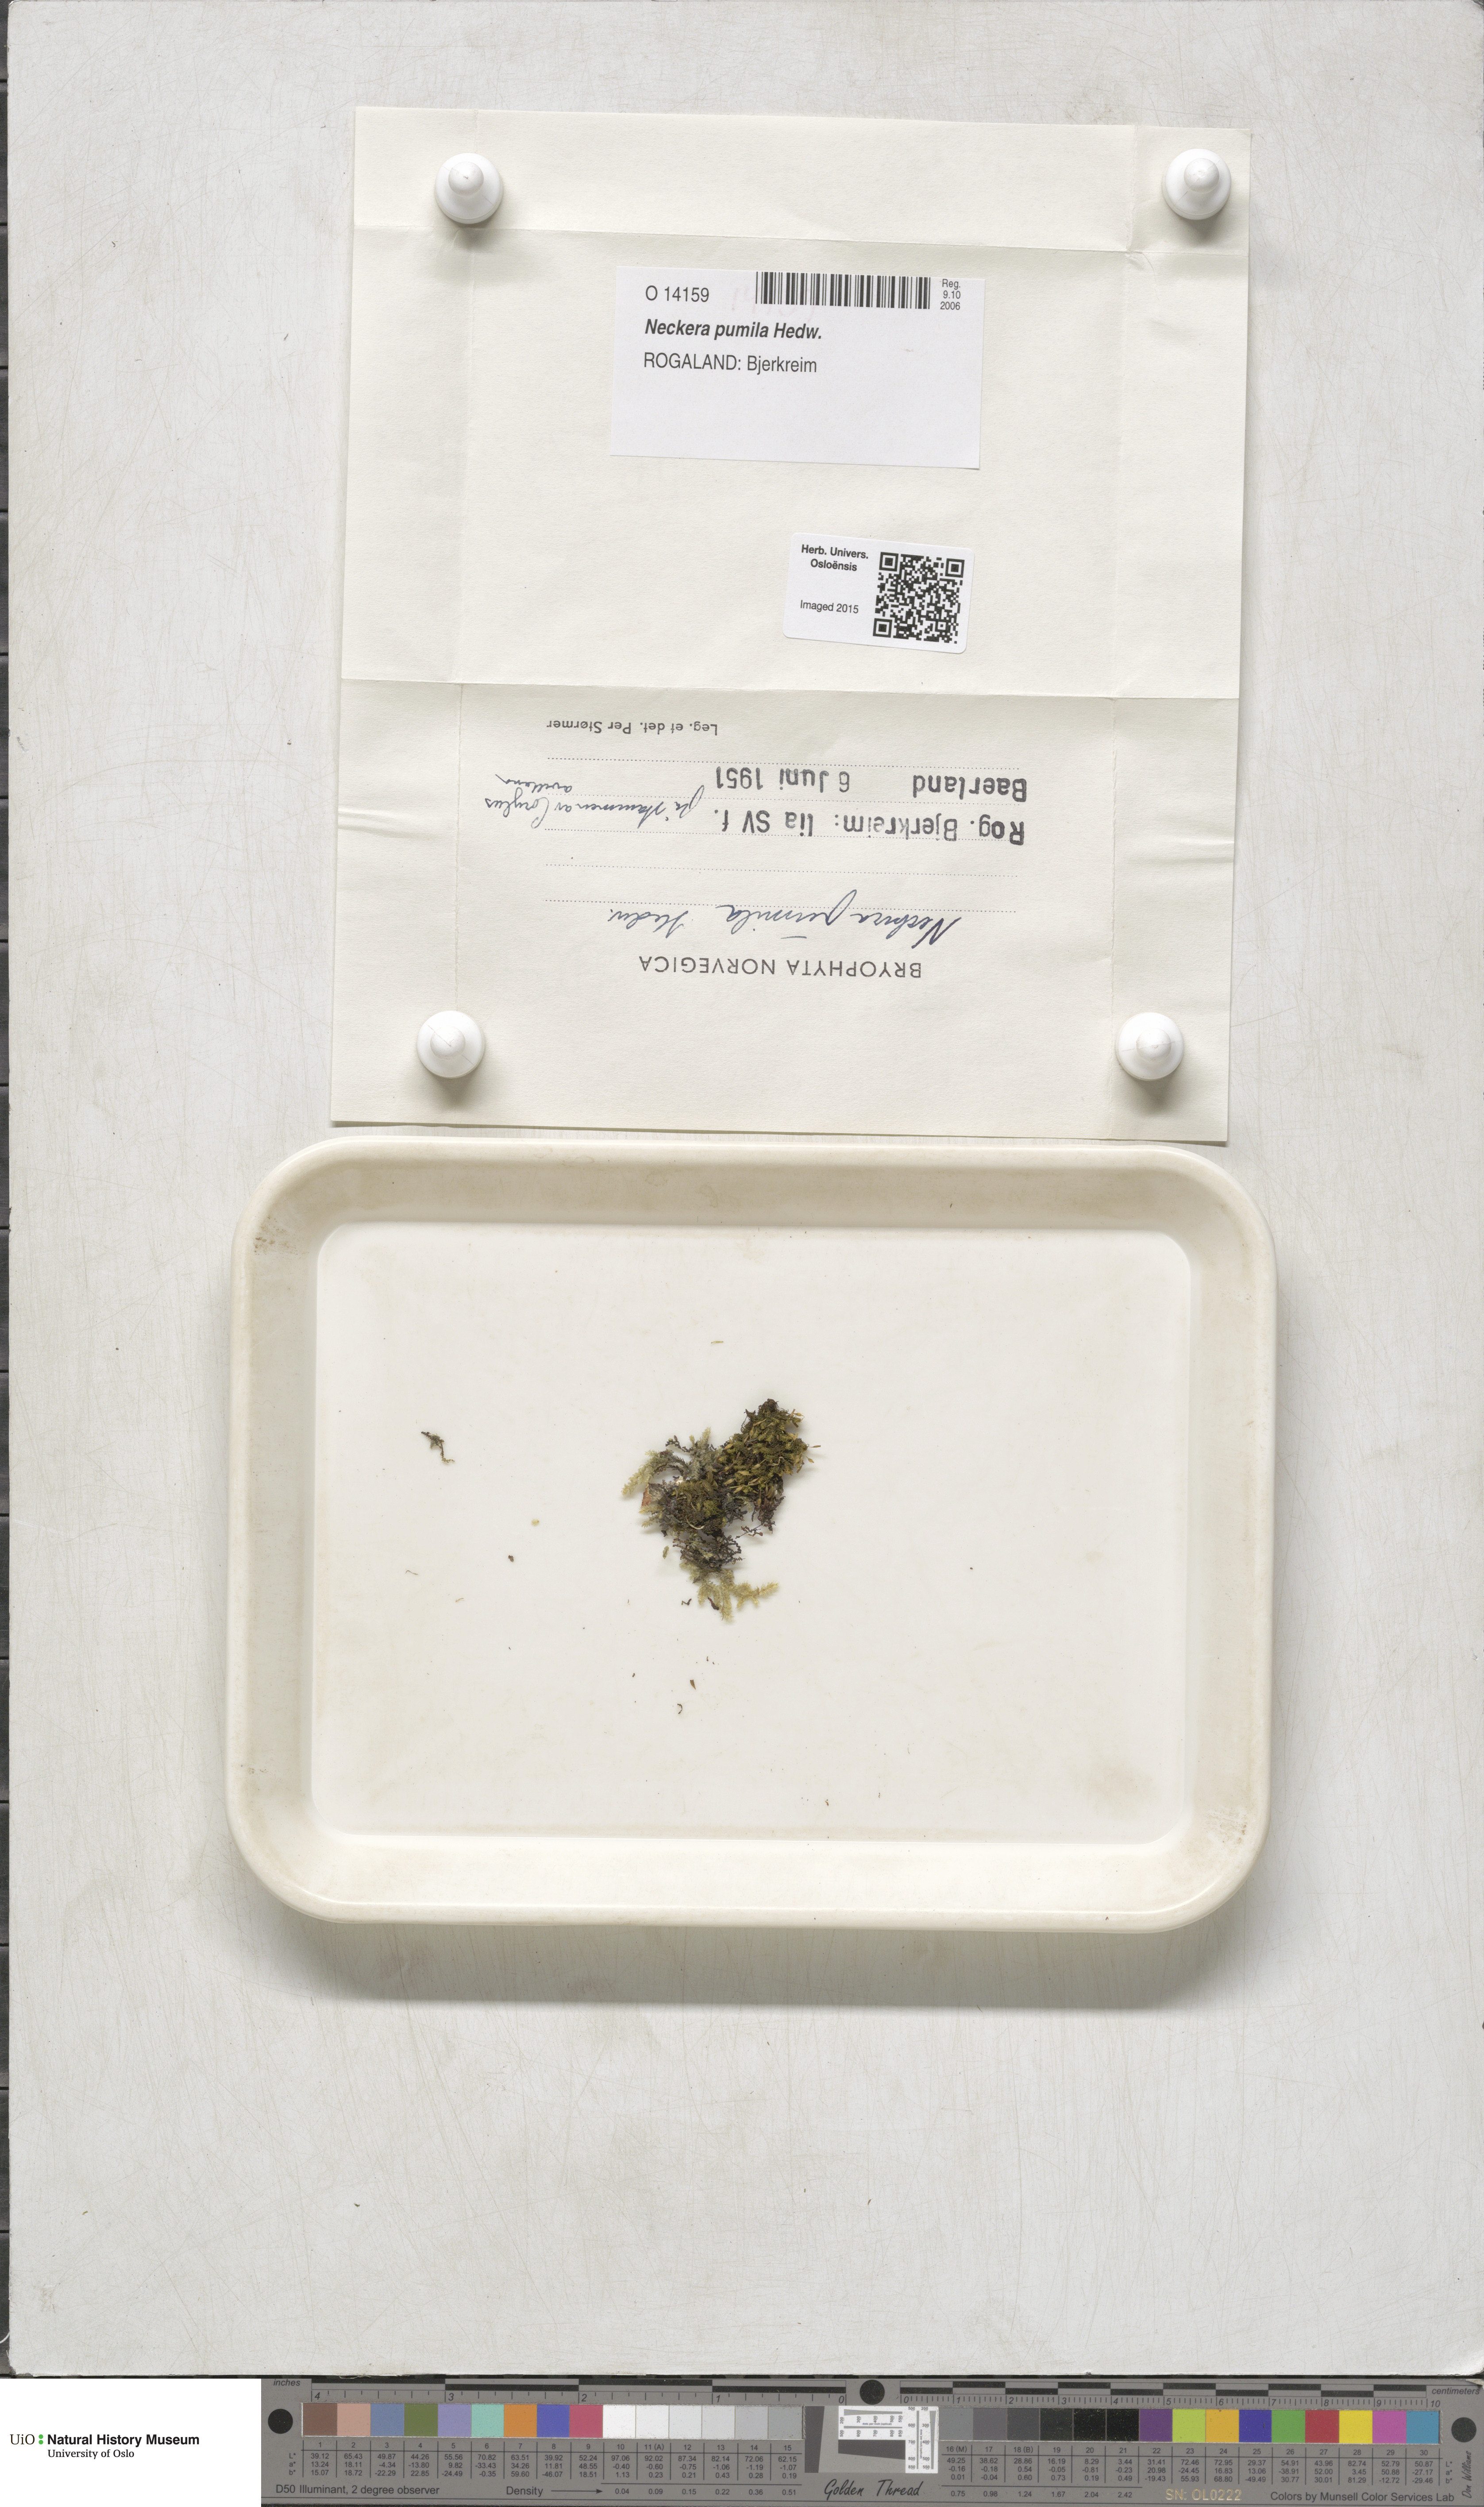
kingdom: Plantae
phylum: Bryophyta
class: Bryopsida
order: Hypnales
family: Neckeraceae
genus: Neckera
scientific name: Neckera pumila
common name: Dwarf neckera
